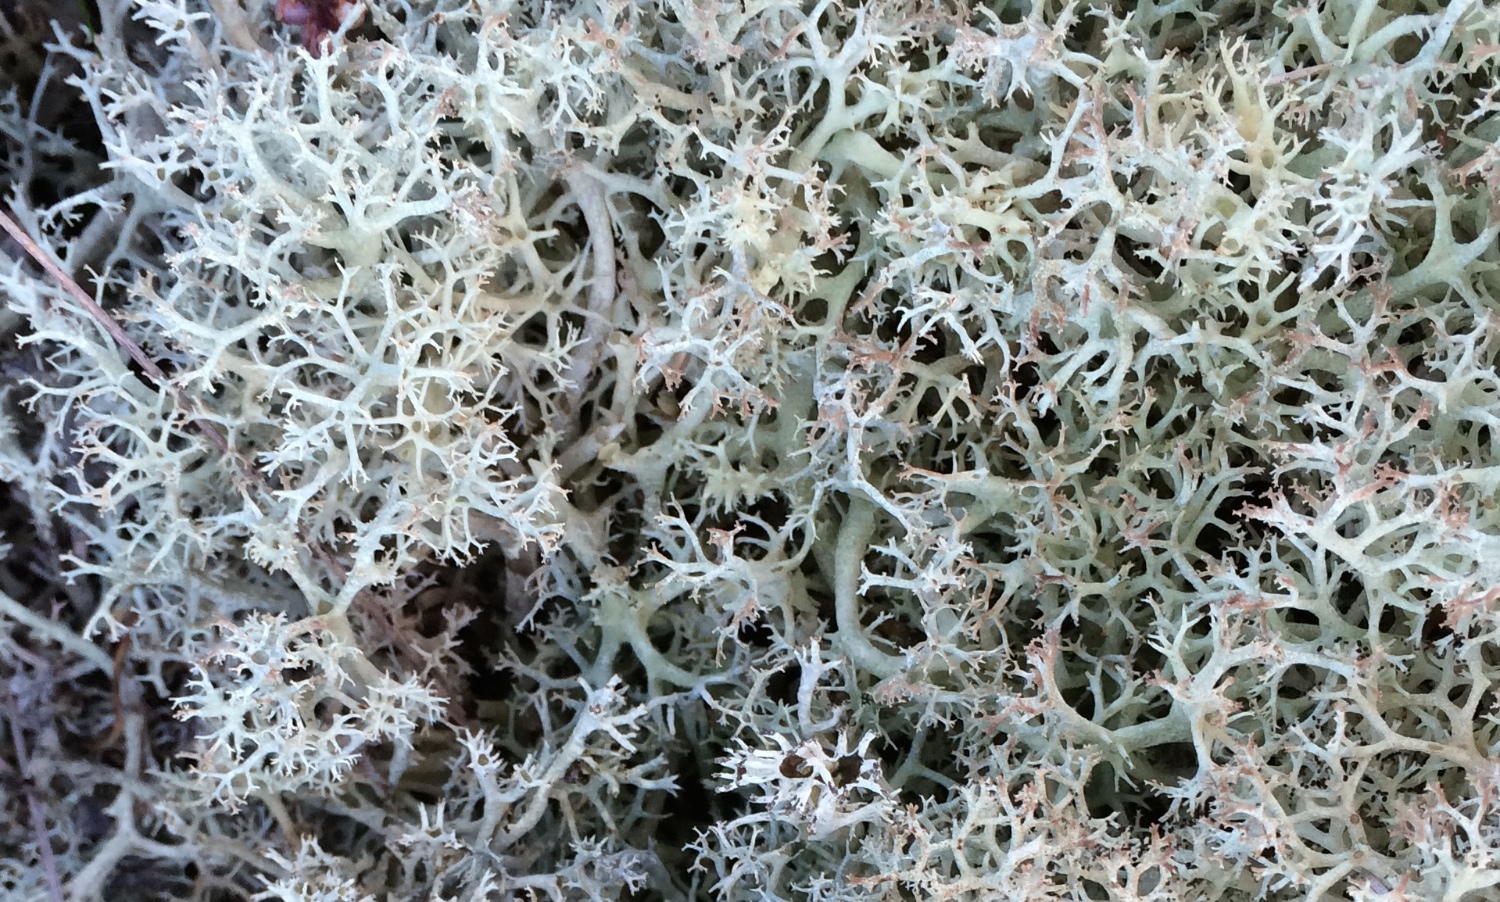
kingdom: Fungi
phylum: Ascomycota
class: Lecanoromycetes
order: Lecanorales
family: Cladoniaceae
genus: Cladonia
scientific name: Cladonia portentosa
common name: hede-rensdyrlav
